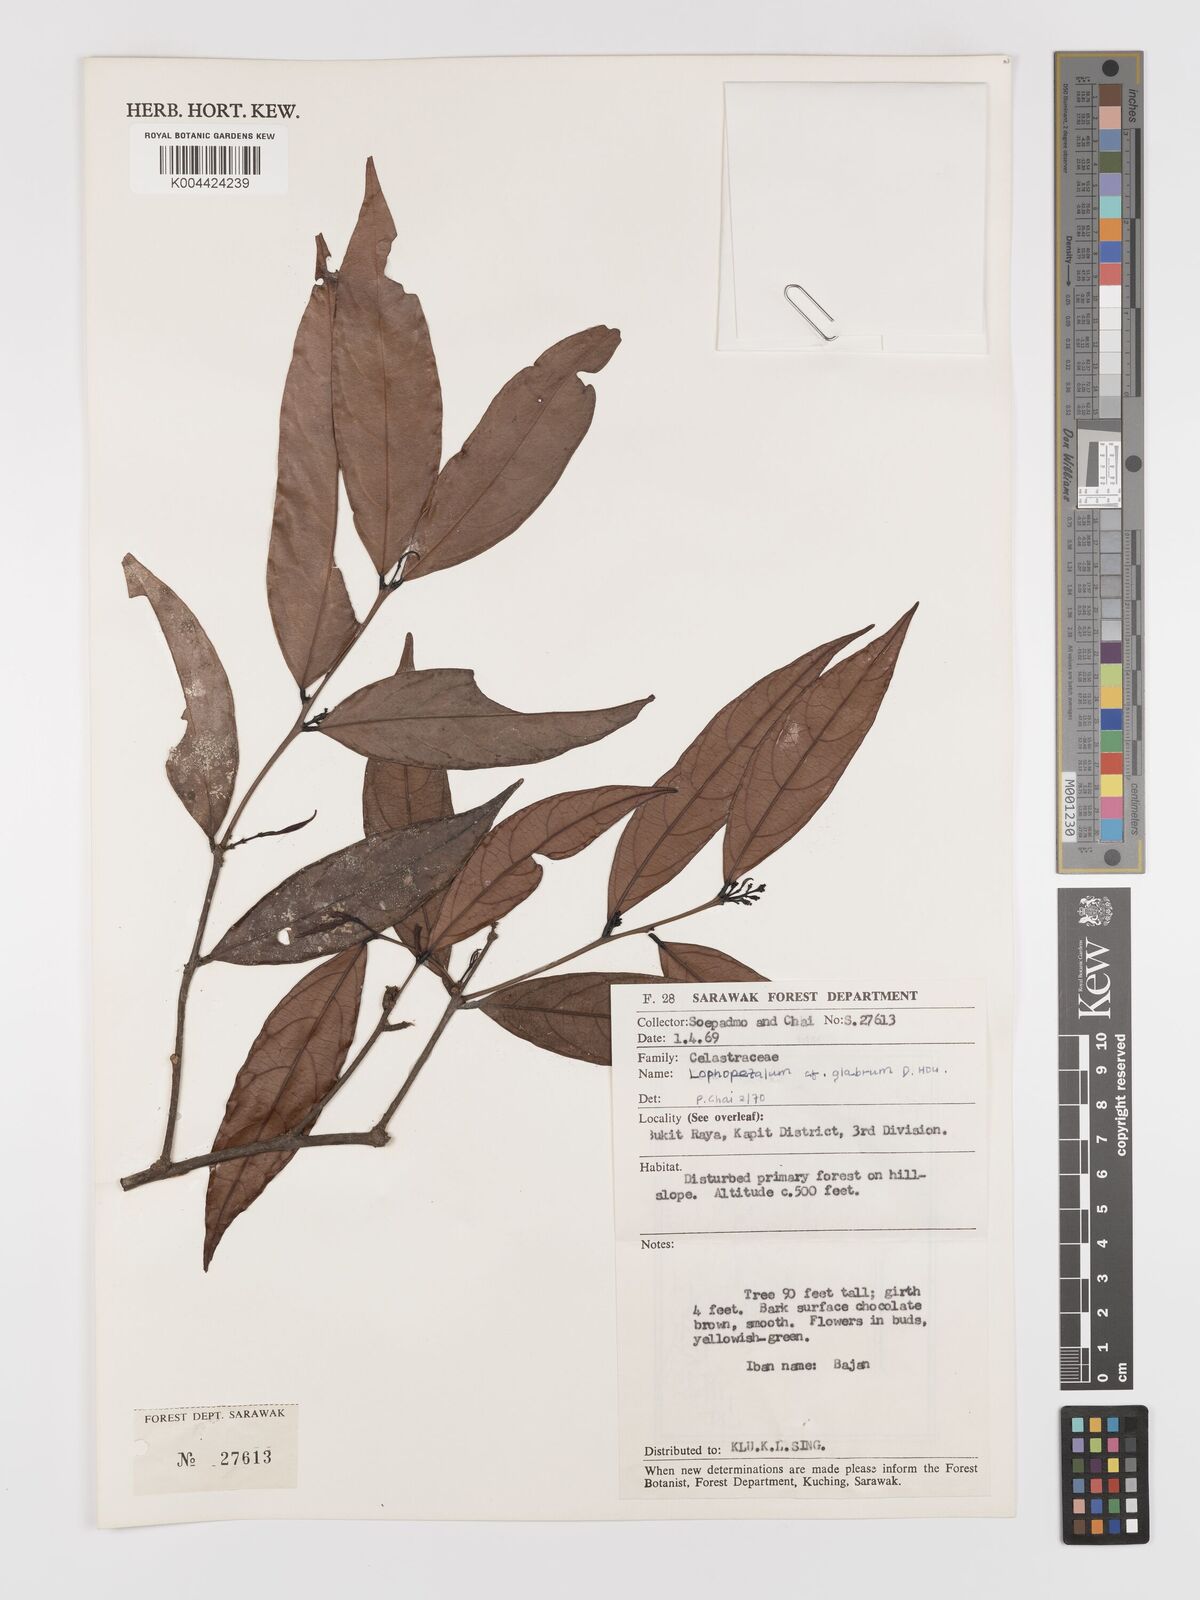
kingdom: Plantae
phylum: Tracheophyta
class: Magnoliopsida
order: Celastrales
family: Celastraceae
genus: Lophopetalum
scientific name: Lophopetalum glabrum
